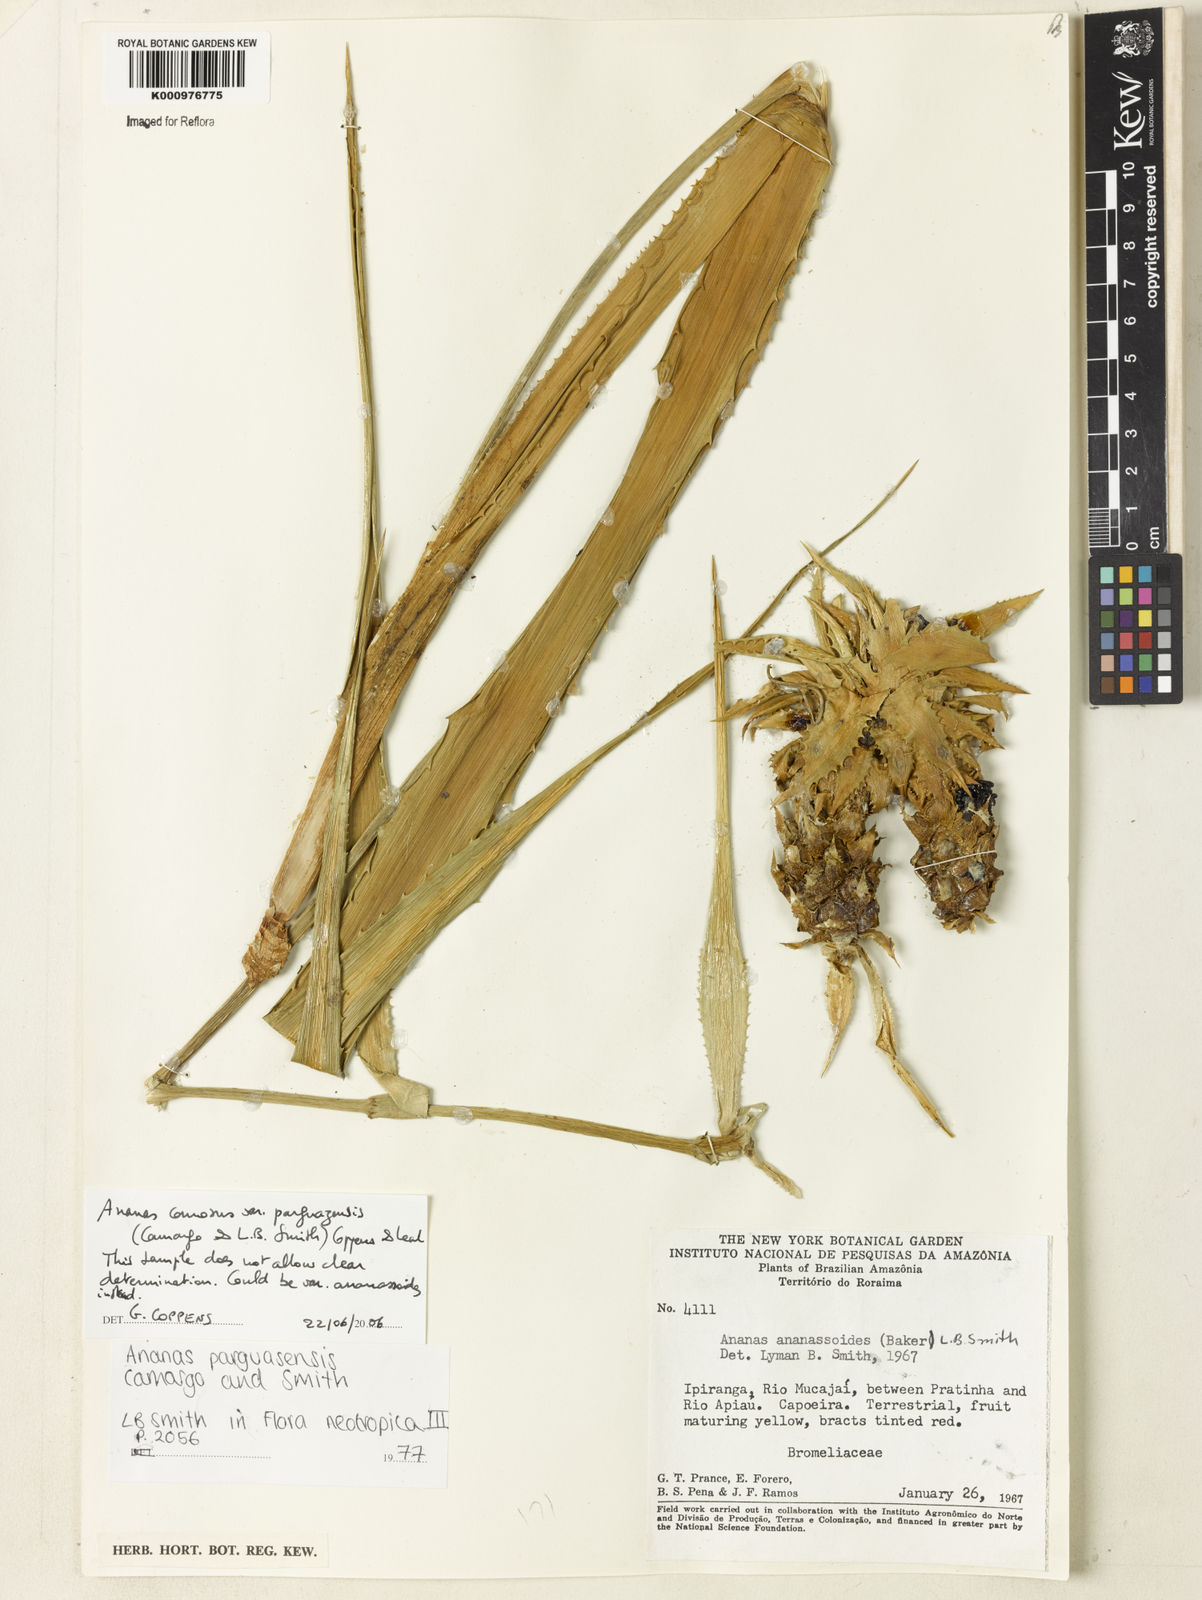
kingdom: Plantae
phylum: Tracheophyta
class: Liliopsida
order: Poales
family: Bromeliaceae
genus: Ananas
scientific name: Ananas comosus
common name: Pineapple
